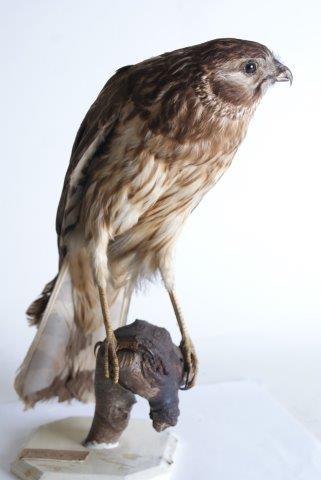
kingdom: Animalia
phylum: Chordata
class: Aves
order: Accipitriformes
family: Accipitridae
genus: Circus
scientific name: Circus cyaneus
